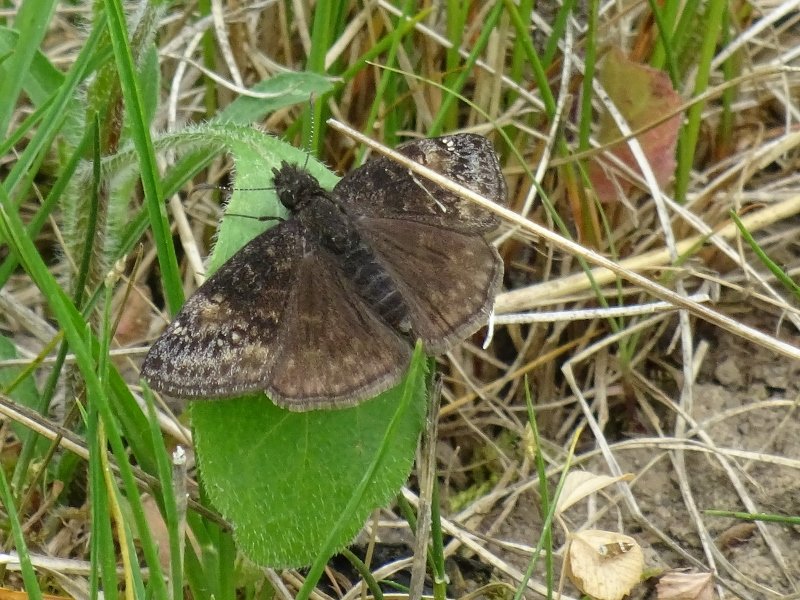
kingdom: Animalia
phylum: Arthropoda
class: Insecta
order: Lepidoptera
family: Hesperiidae
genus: Gesta
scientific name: Gesta
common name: Wild Indigo Duskywing
